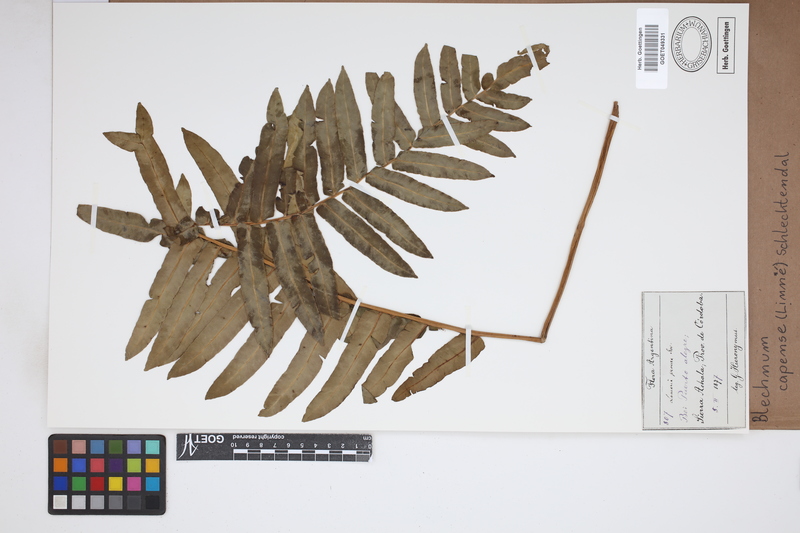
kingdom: Plantae
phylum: Tracheophyta
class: Polypodiopsida
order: Polypodiales
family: Blechnaceae
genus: Parablechnum
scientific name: Parablechnum capense
